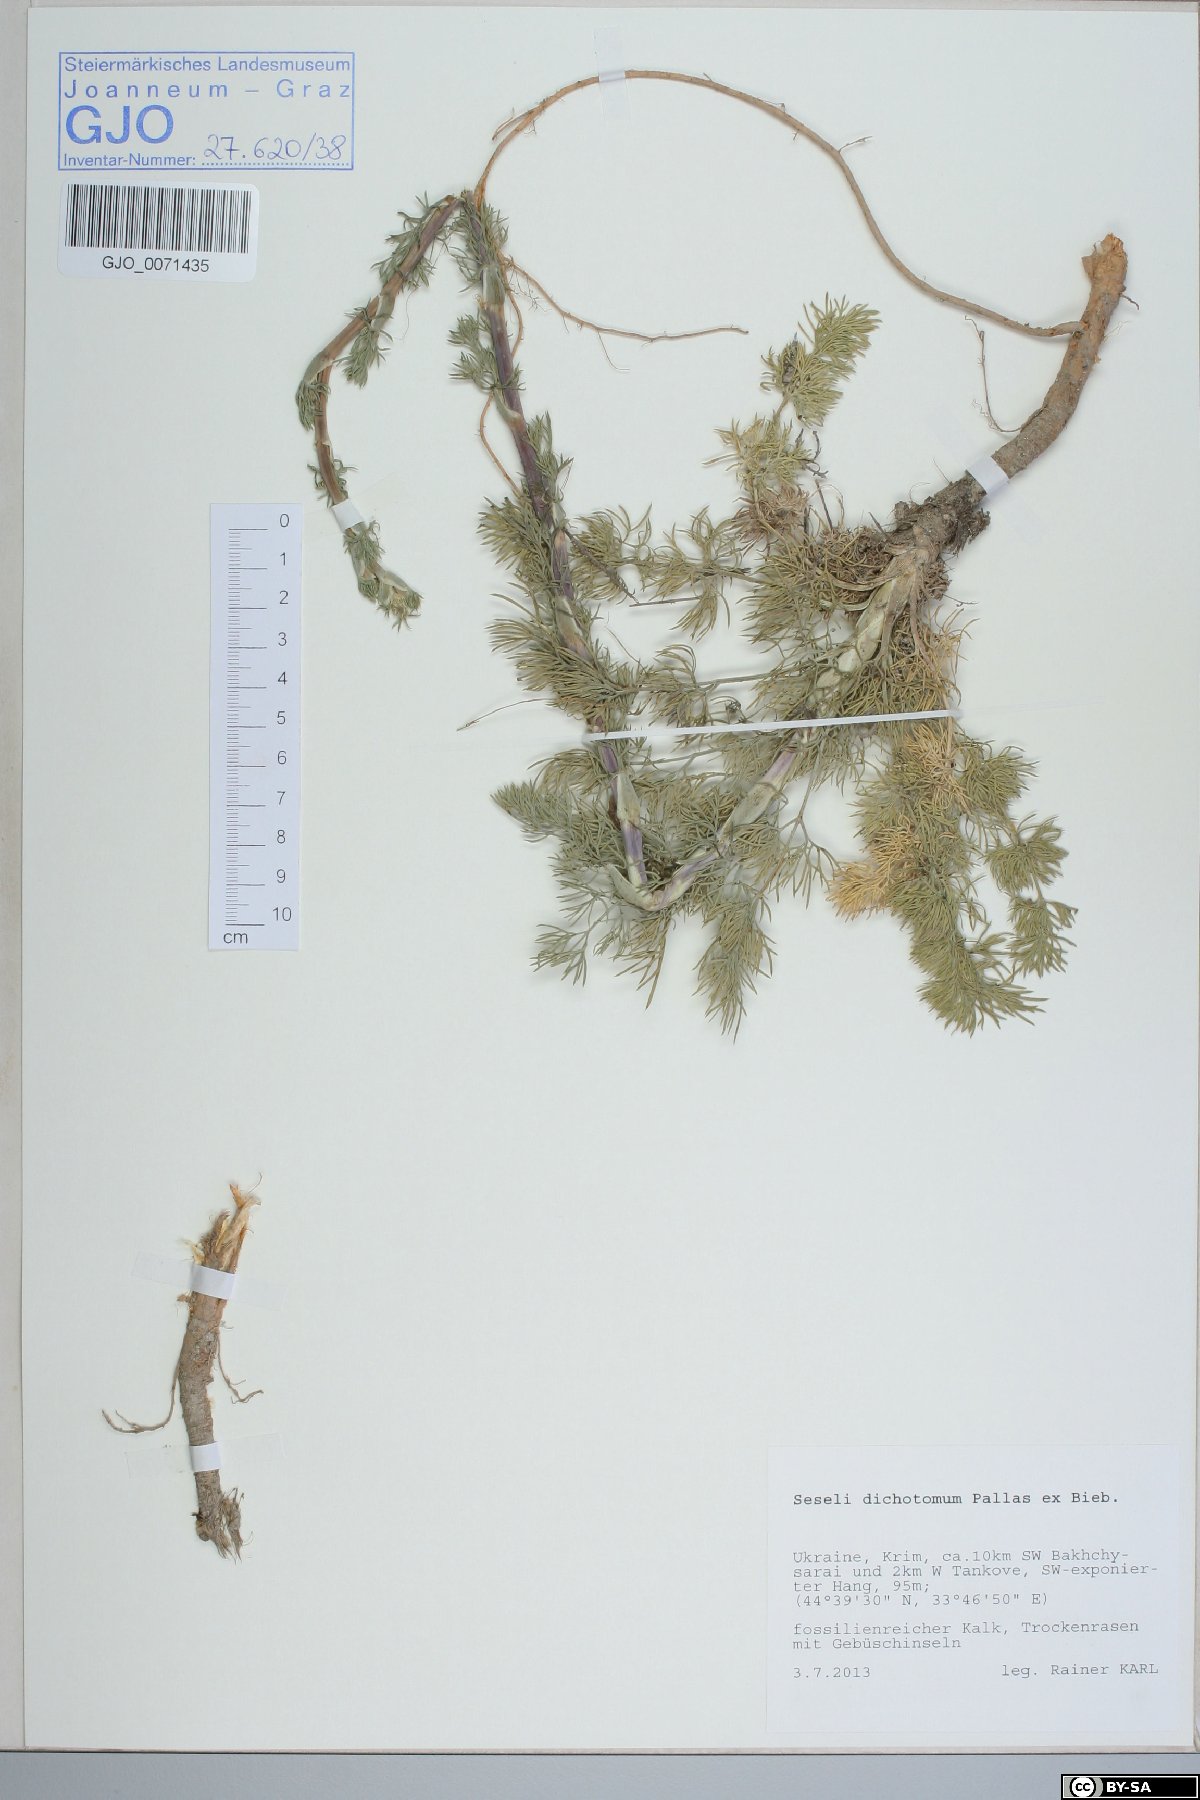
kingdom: Plantae
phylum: Tracheophyta
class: Magnoliopsida
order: Apiales
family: Apiaceae
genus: Hippomarathrum
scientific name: Hippomarathrum dichotomum
